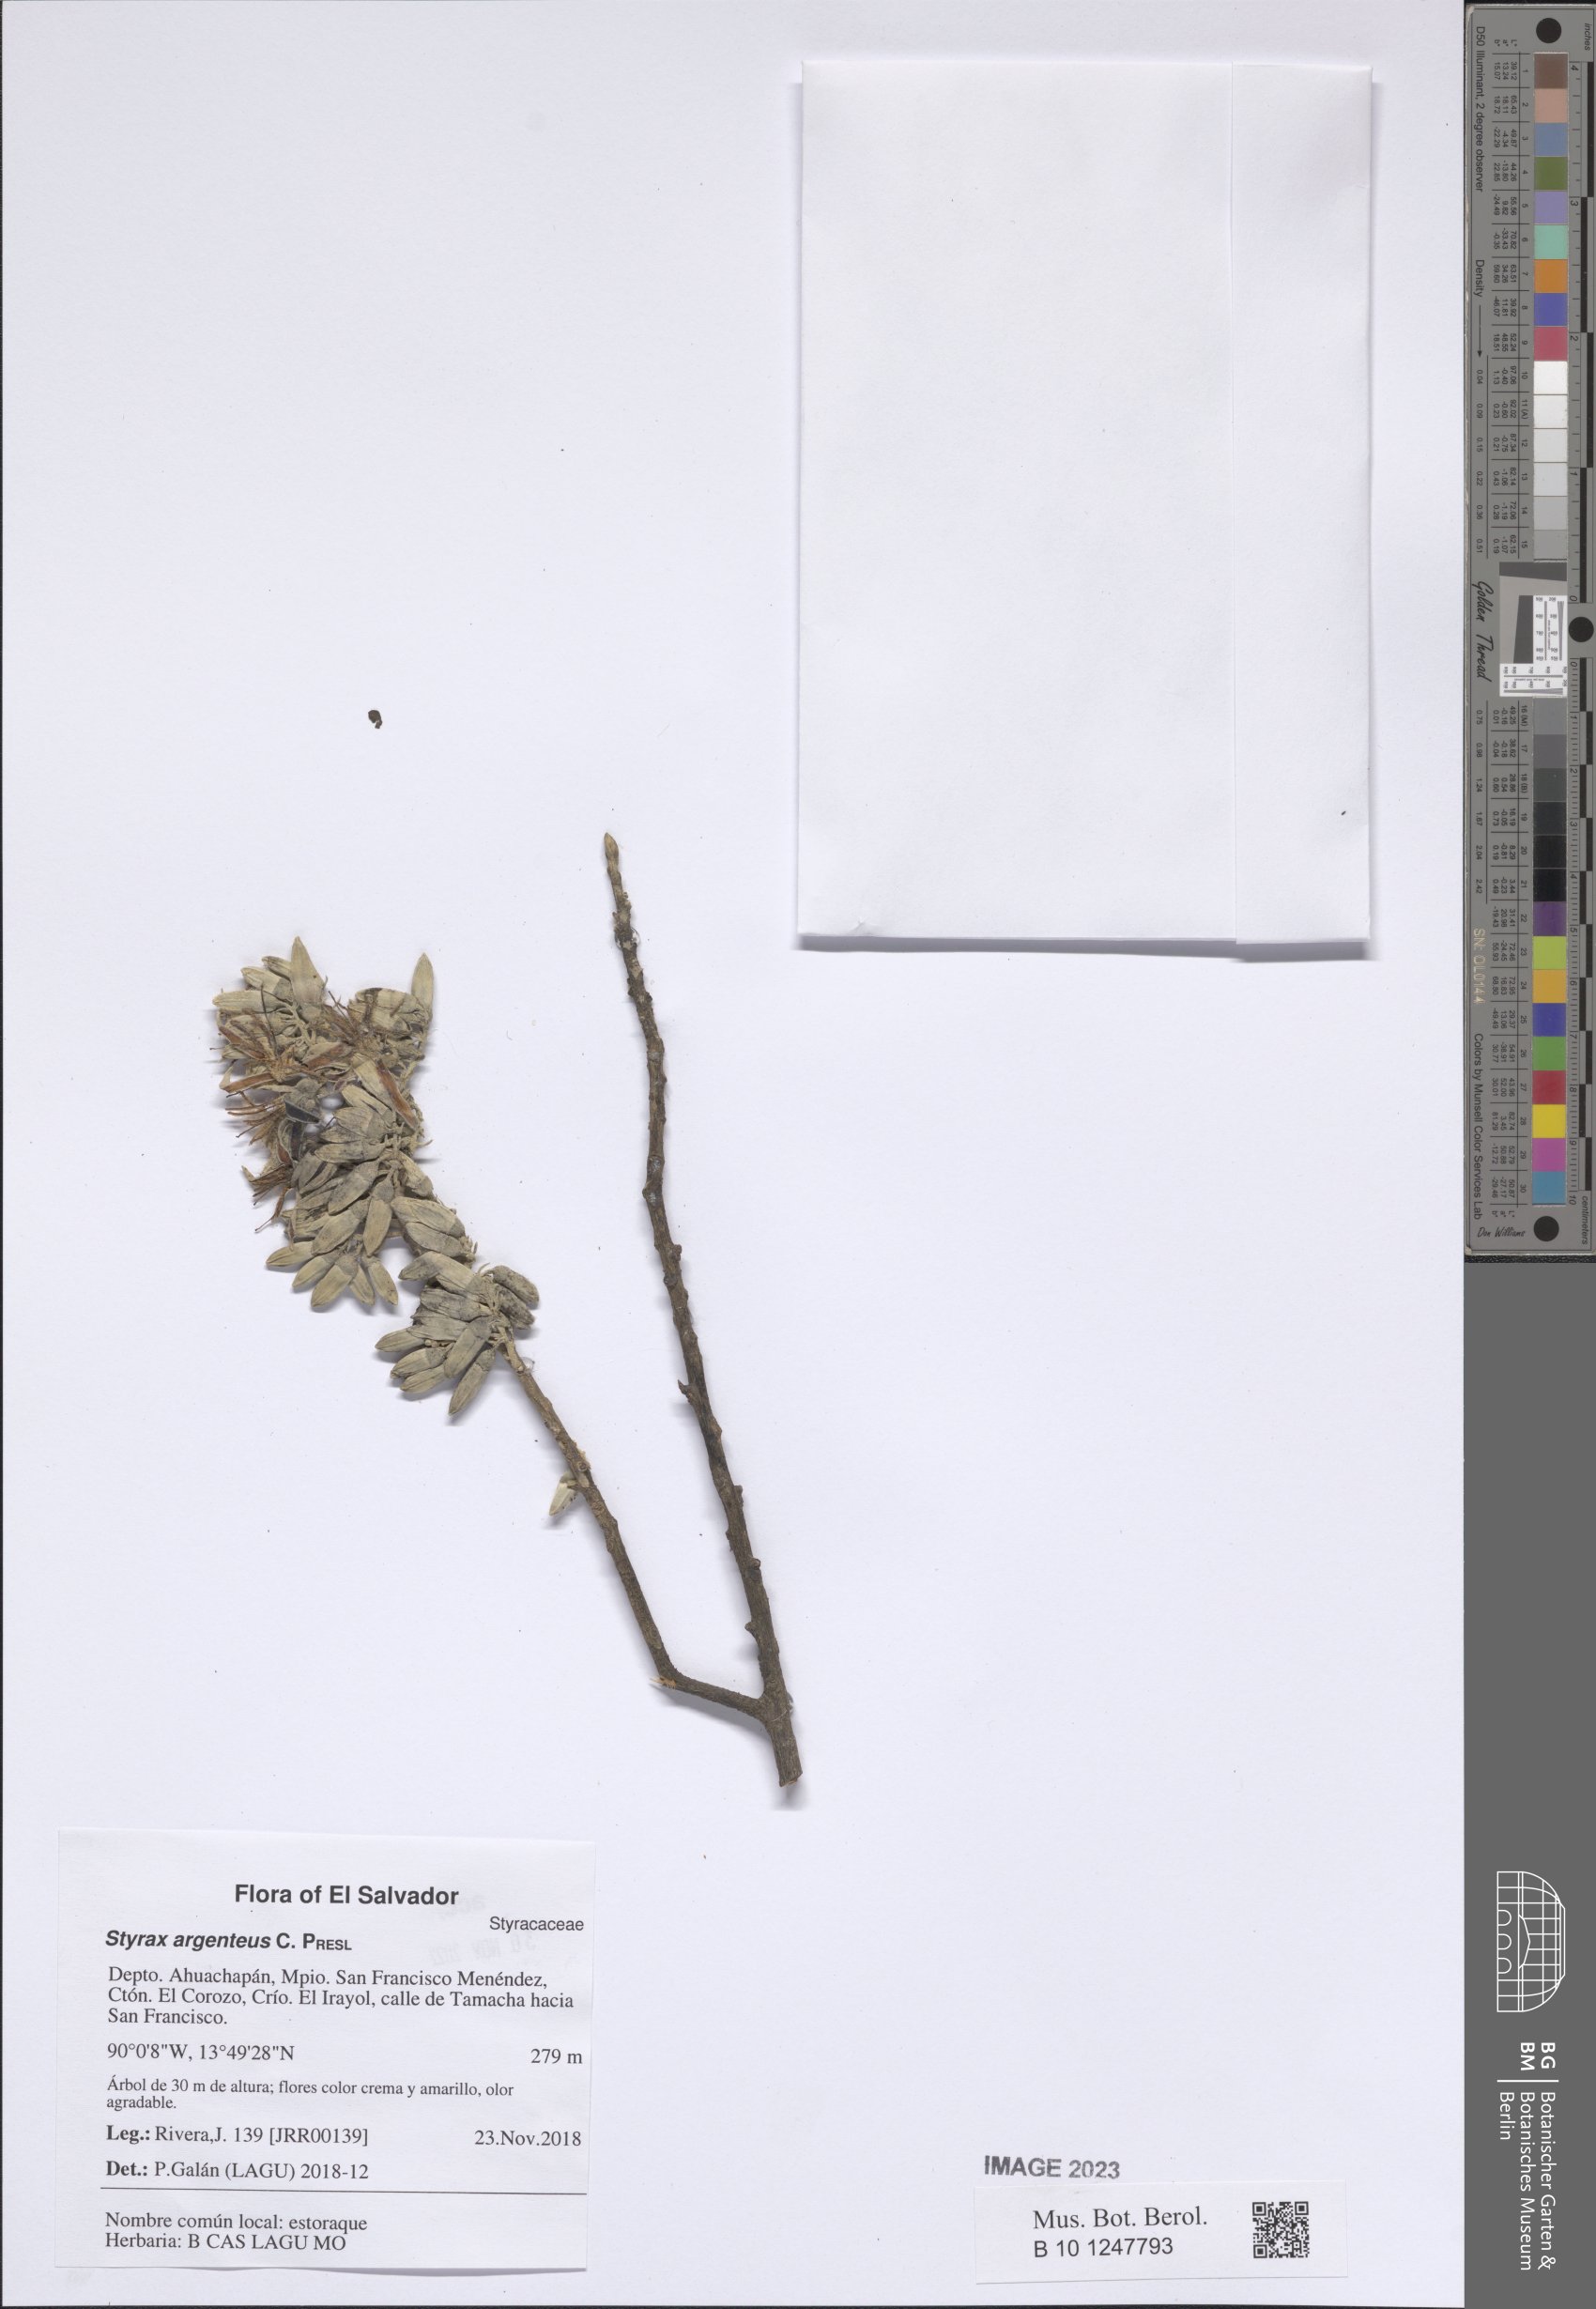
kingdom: Plantae
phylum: Tracheophyta
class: Magnoliopsida
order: Ericales
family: Styracaceae
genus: Styrax
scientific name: Styrax argenteus
